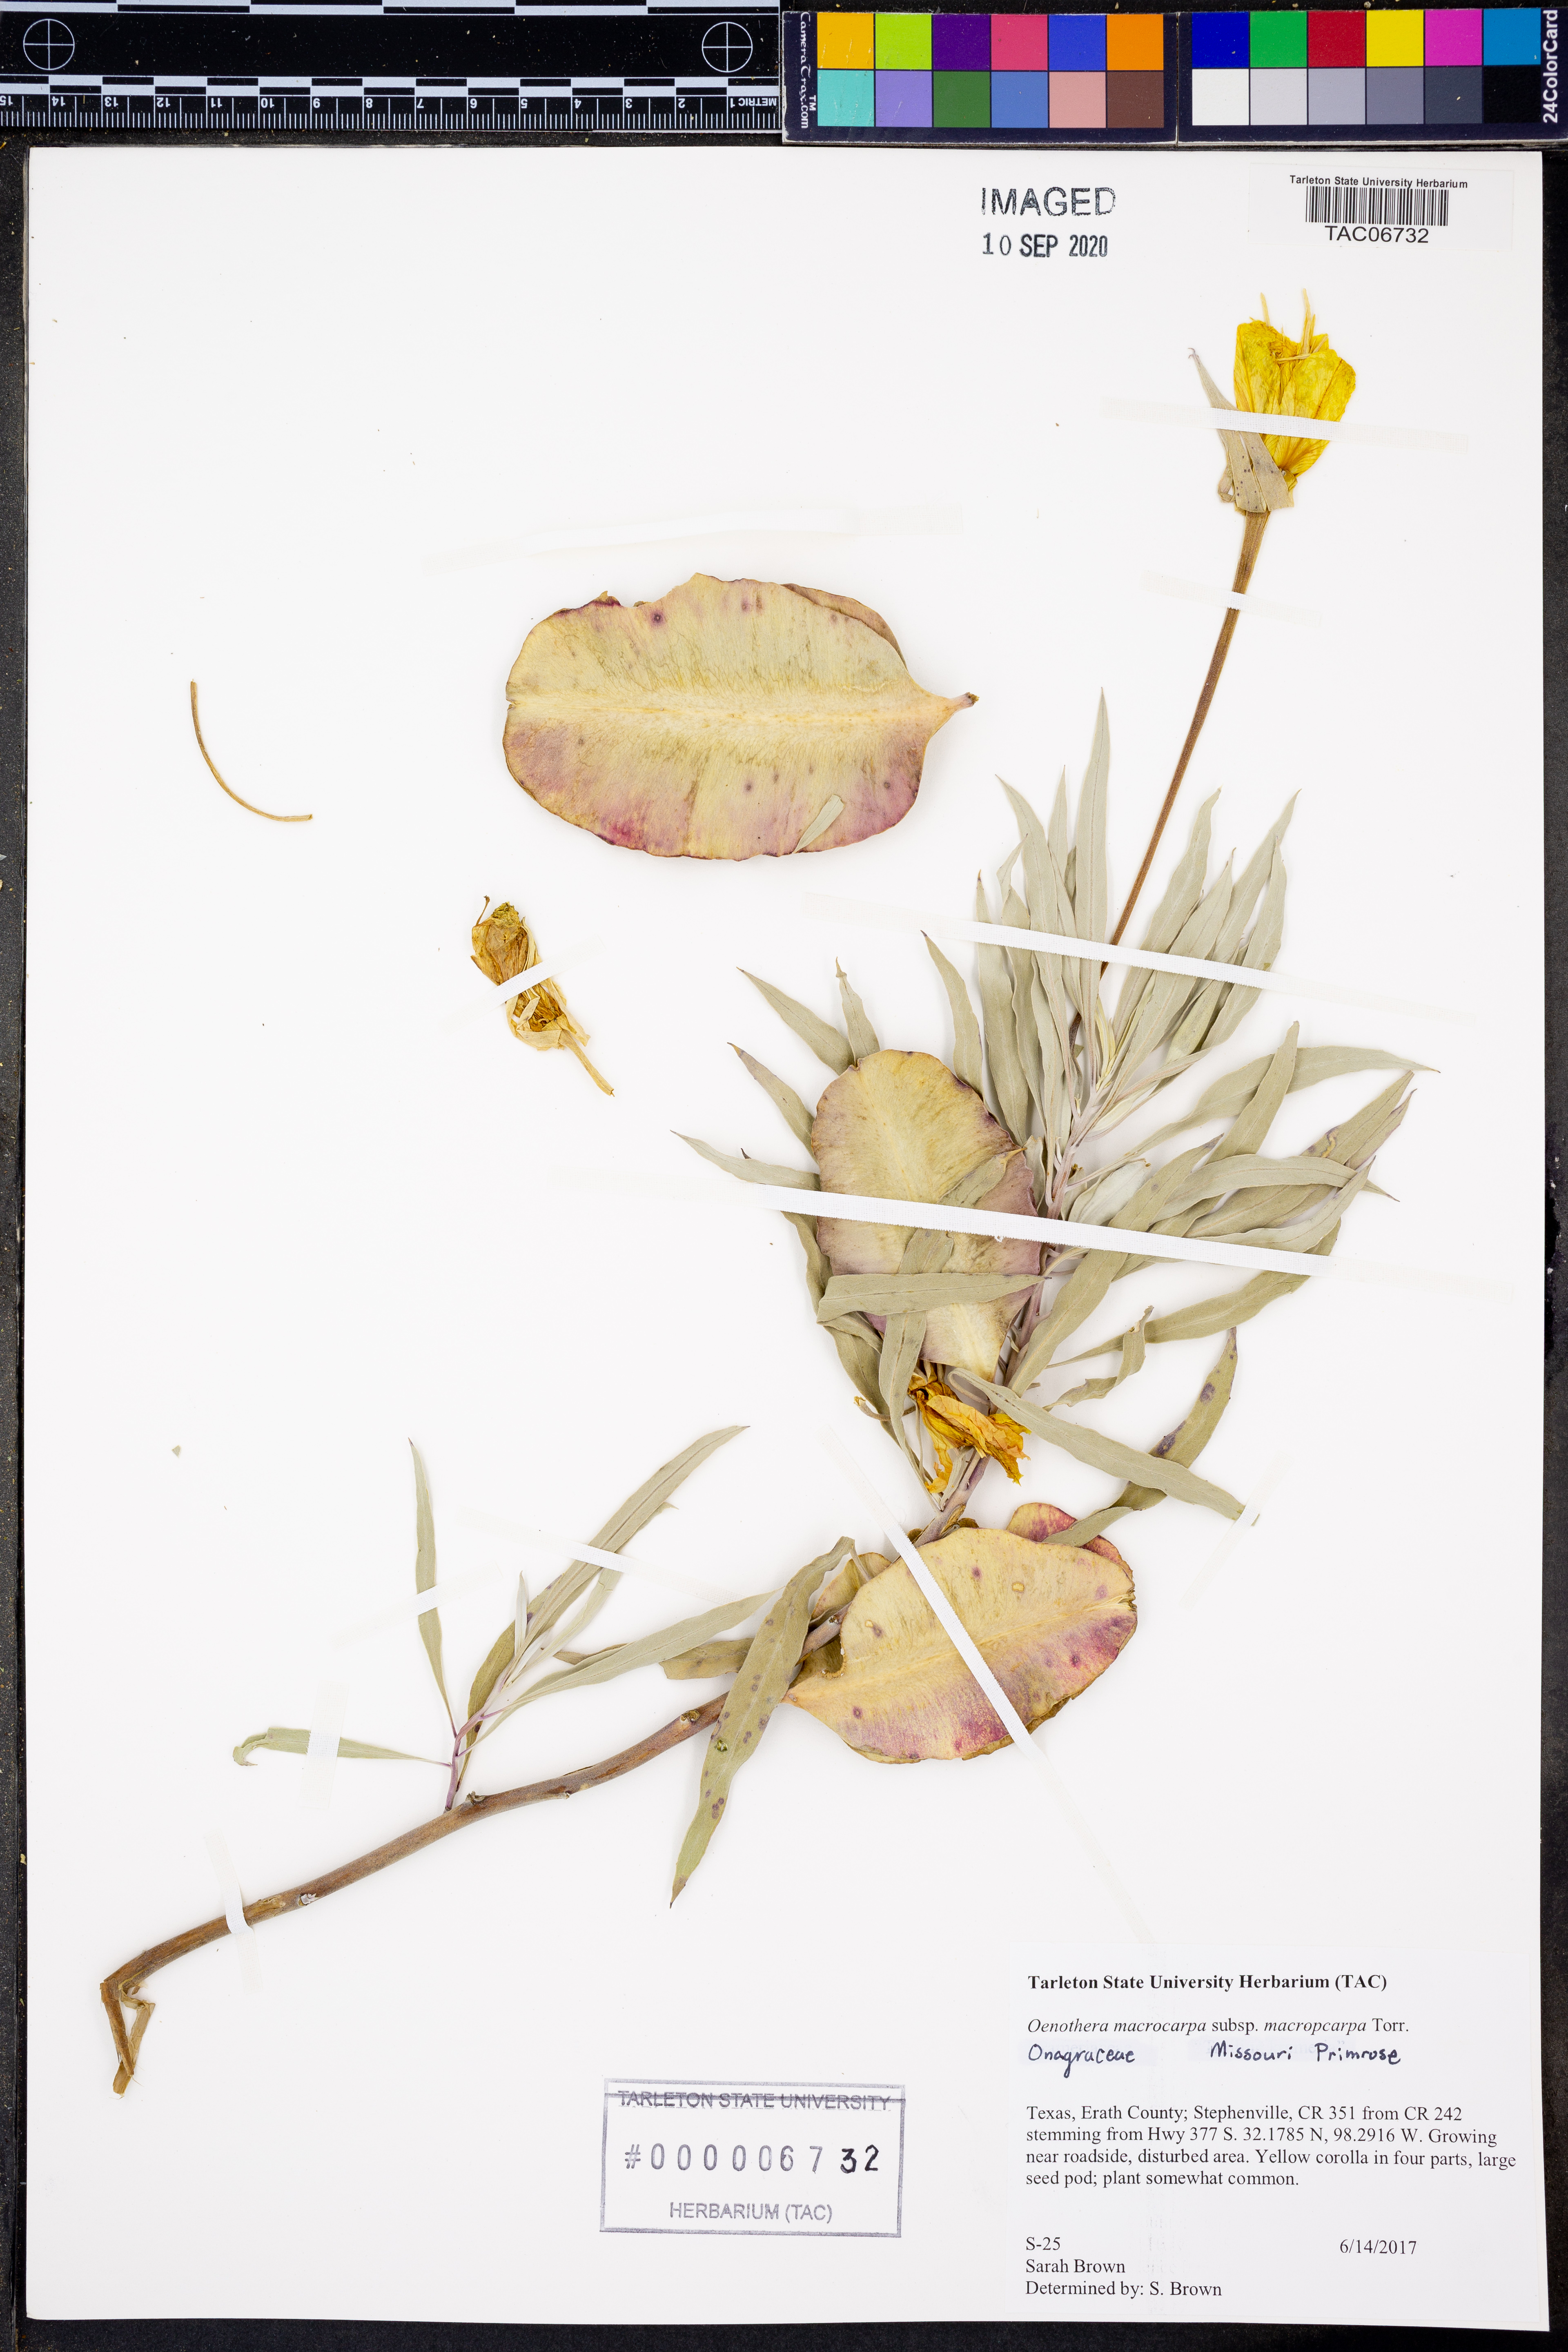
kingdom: Plantae
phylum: Tracheophyta
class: Magnoliopsida
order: Myrtales
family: Onagraceae
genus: Oenothera
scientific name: Oenothera macrocarpa
